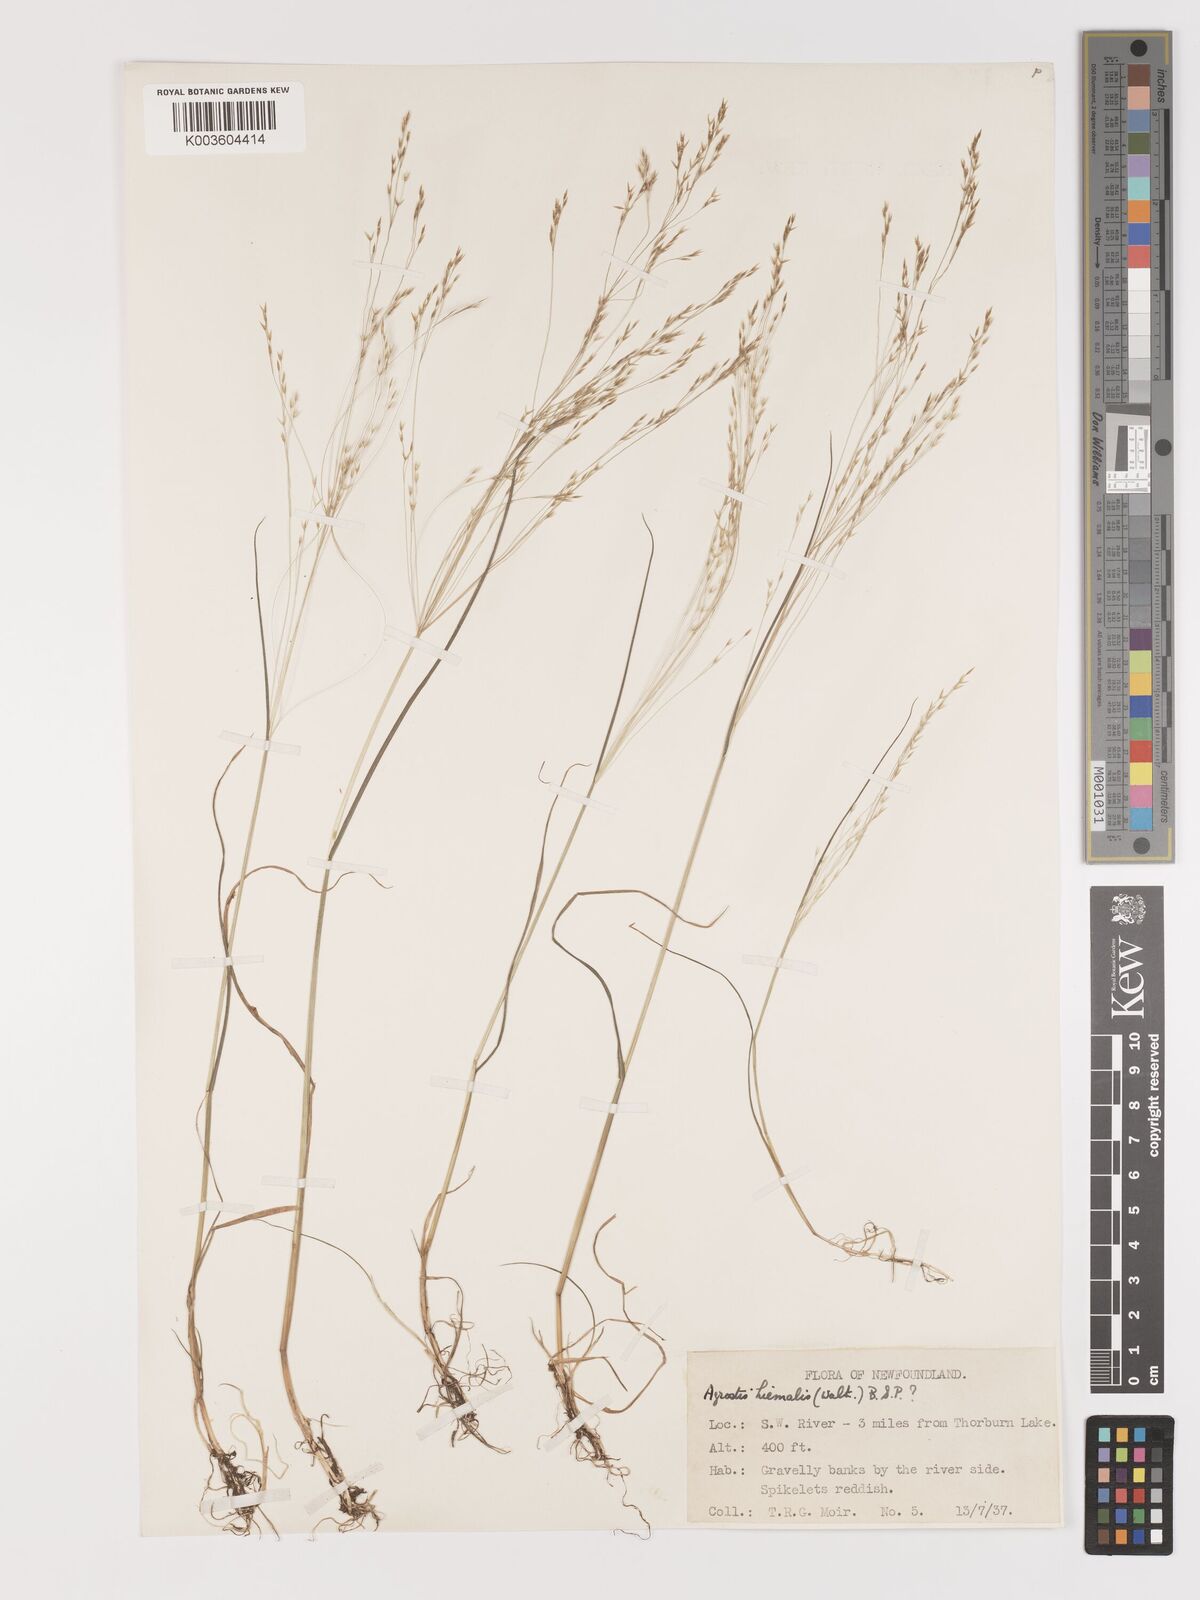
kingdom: Plantae
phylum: Tracheophyta
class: Liliopsida
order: Poales
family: Poaceae
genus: Agrostis
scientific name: Agrostis hyemalis
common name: Small bent
